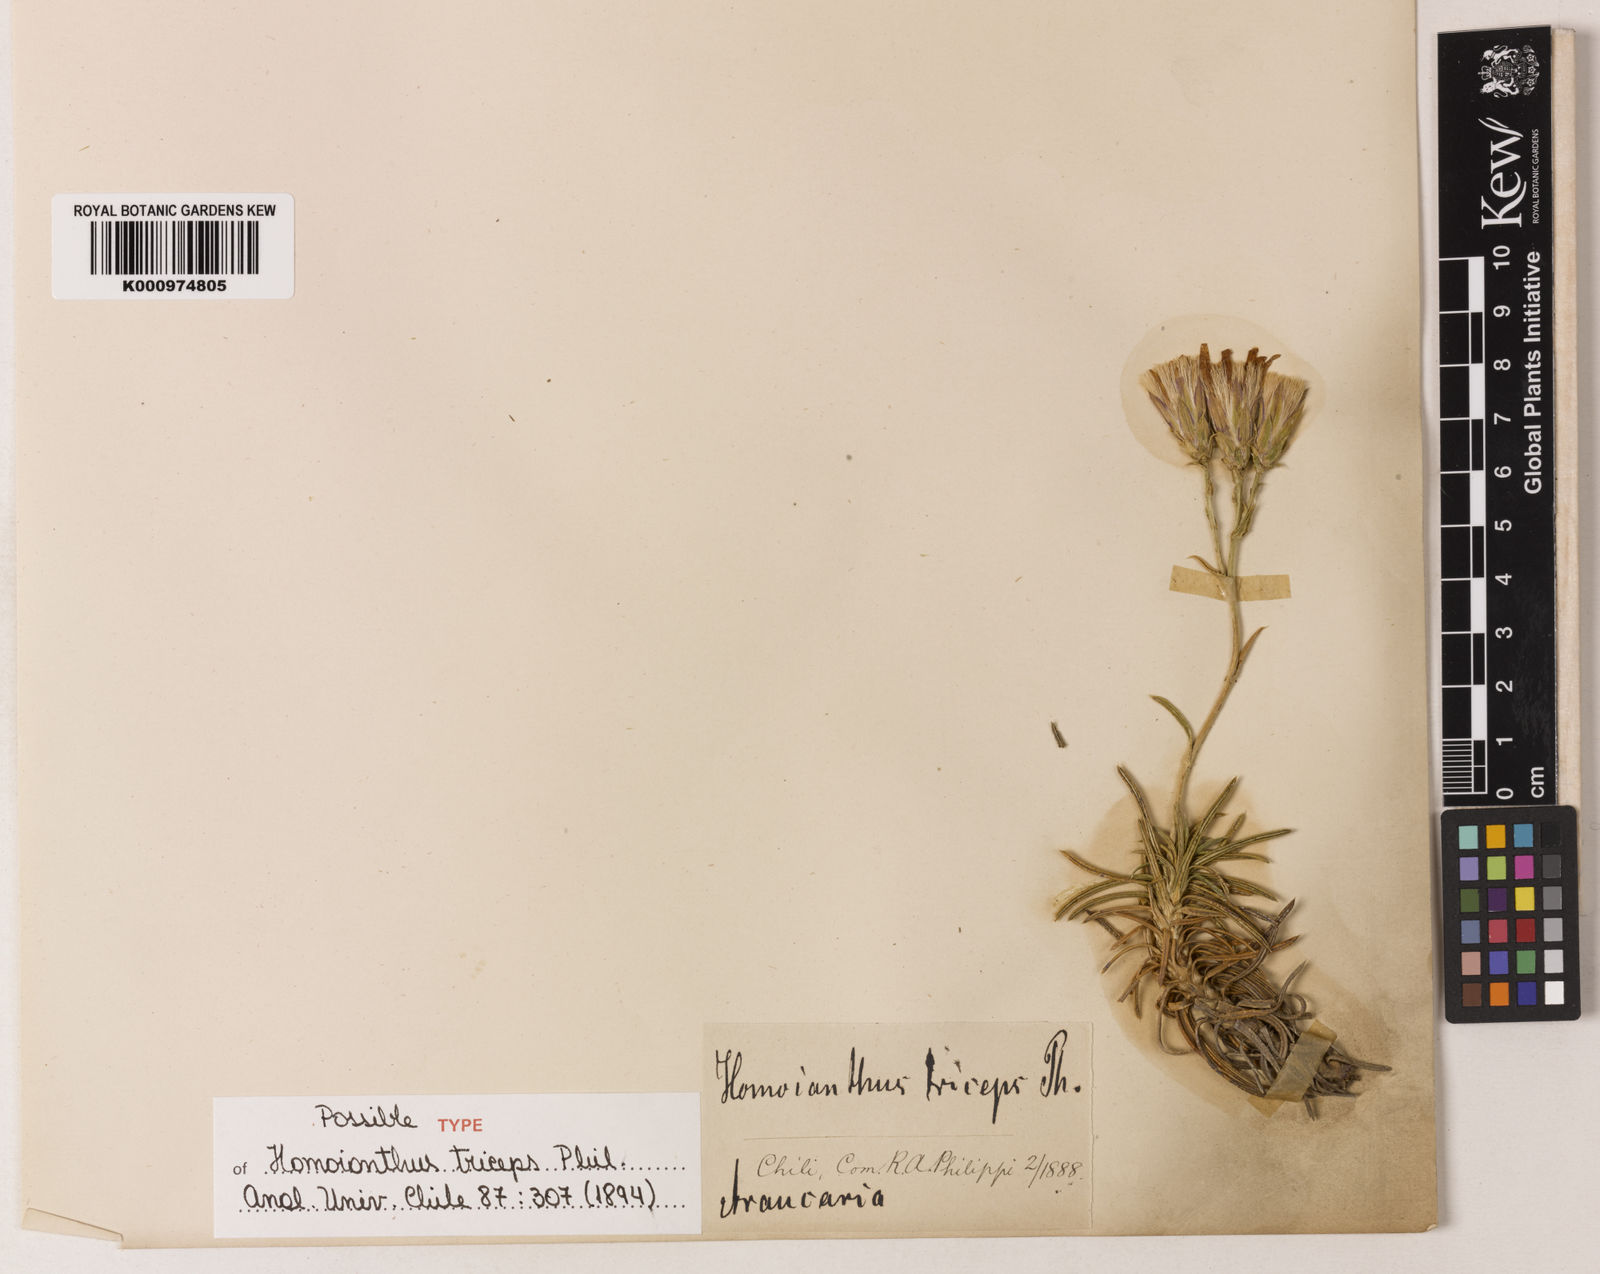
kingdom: Plantae
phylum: Tracheophyta
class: Magnoliopsida
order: Asterales
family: Asteraceae
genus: Perezia
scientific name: Perezia recurvata
